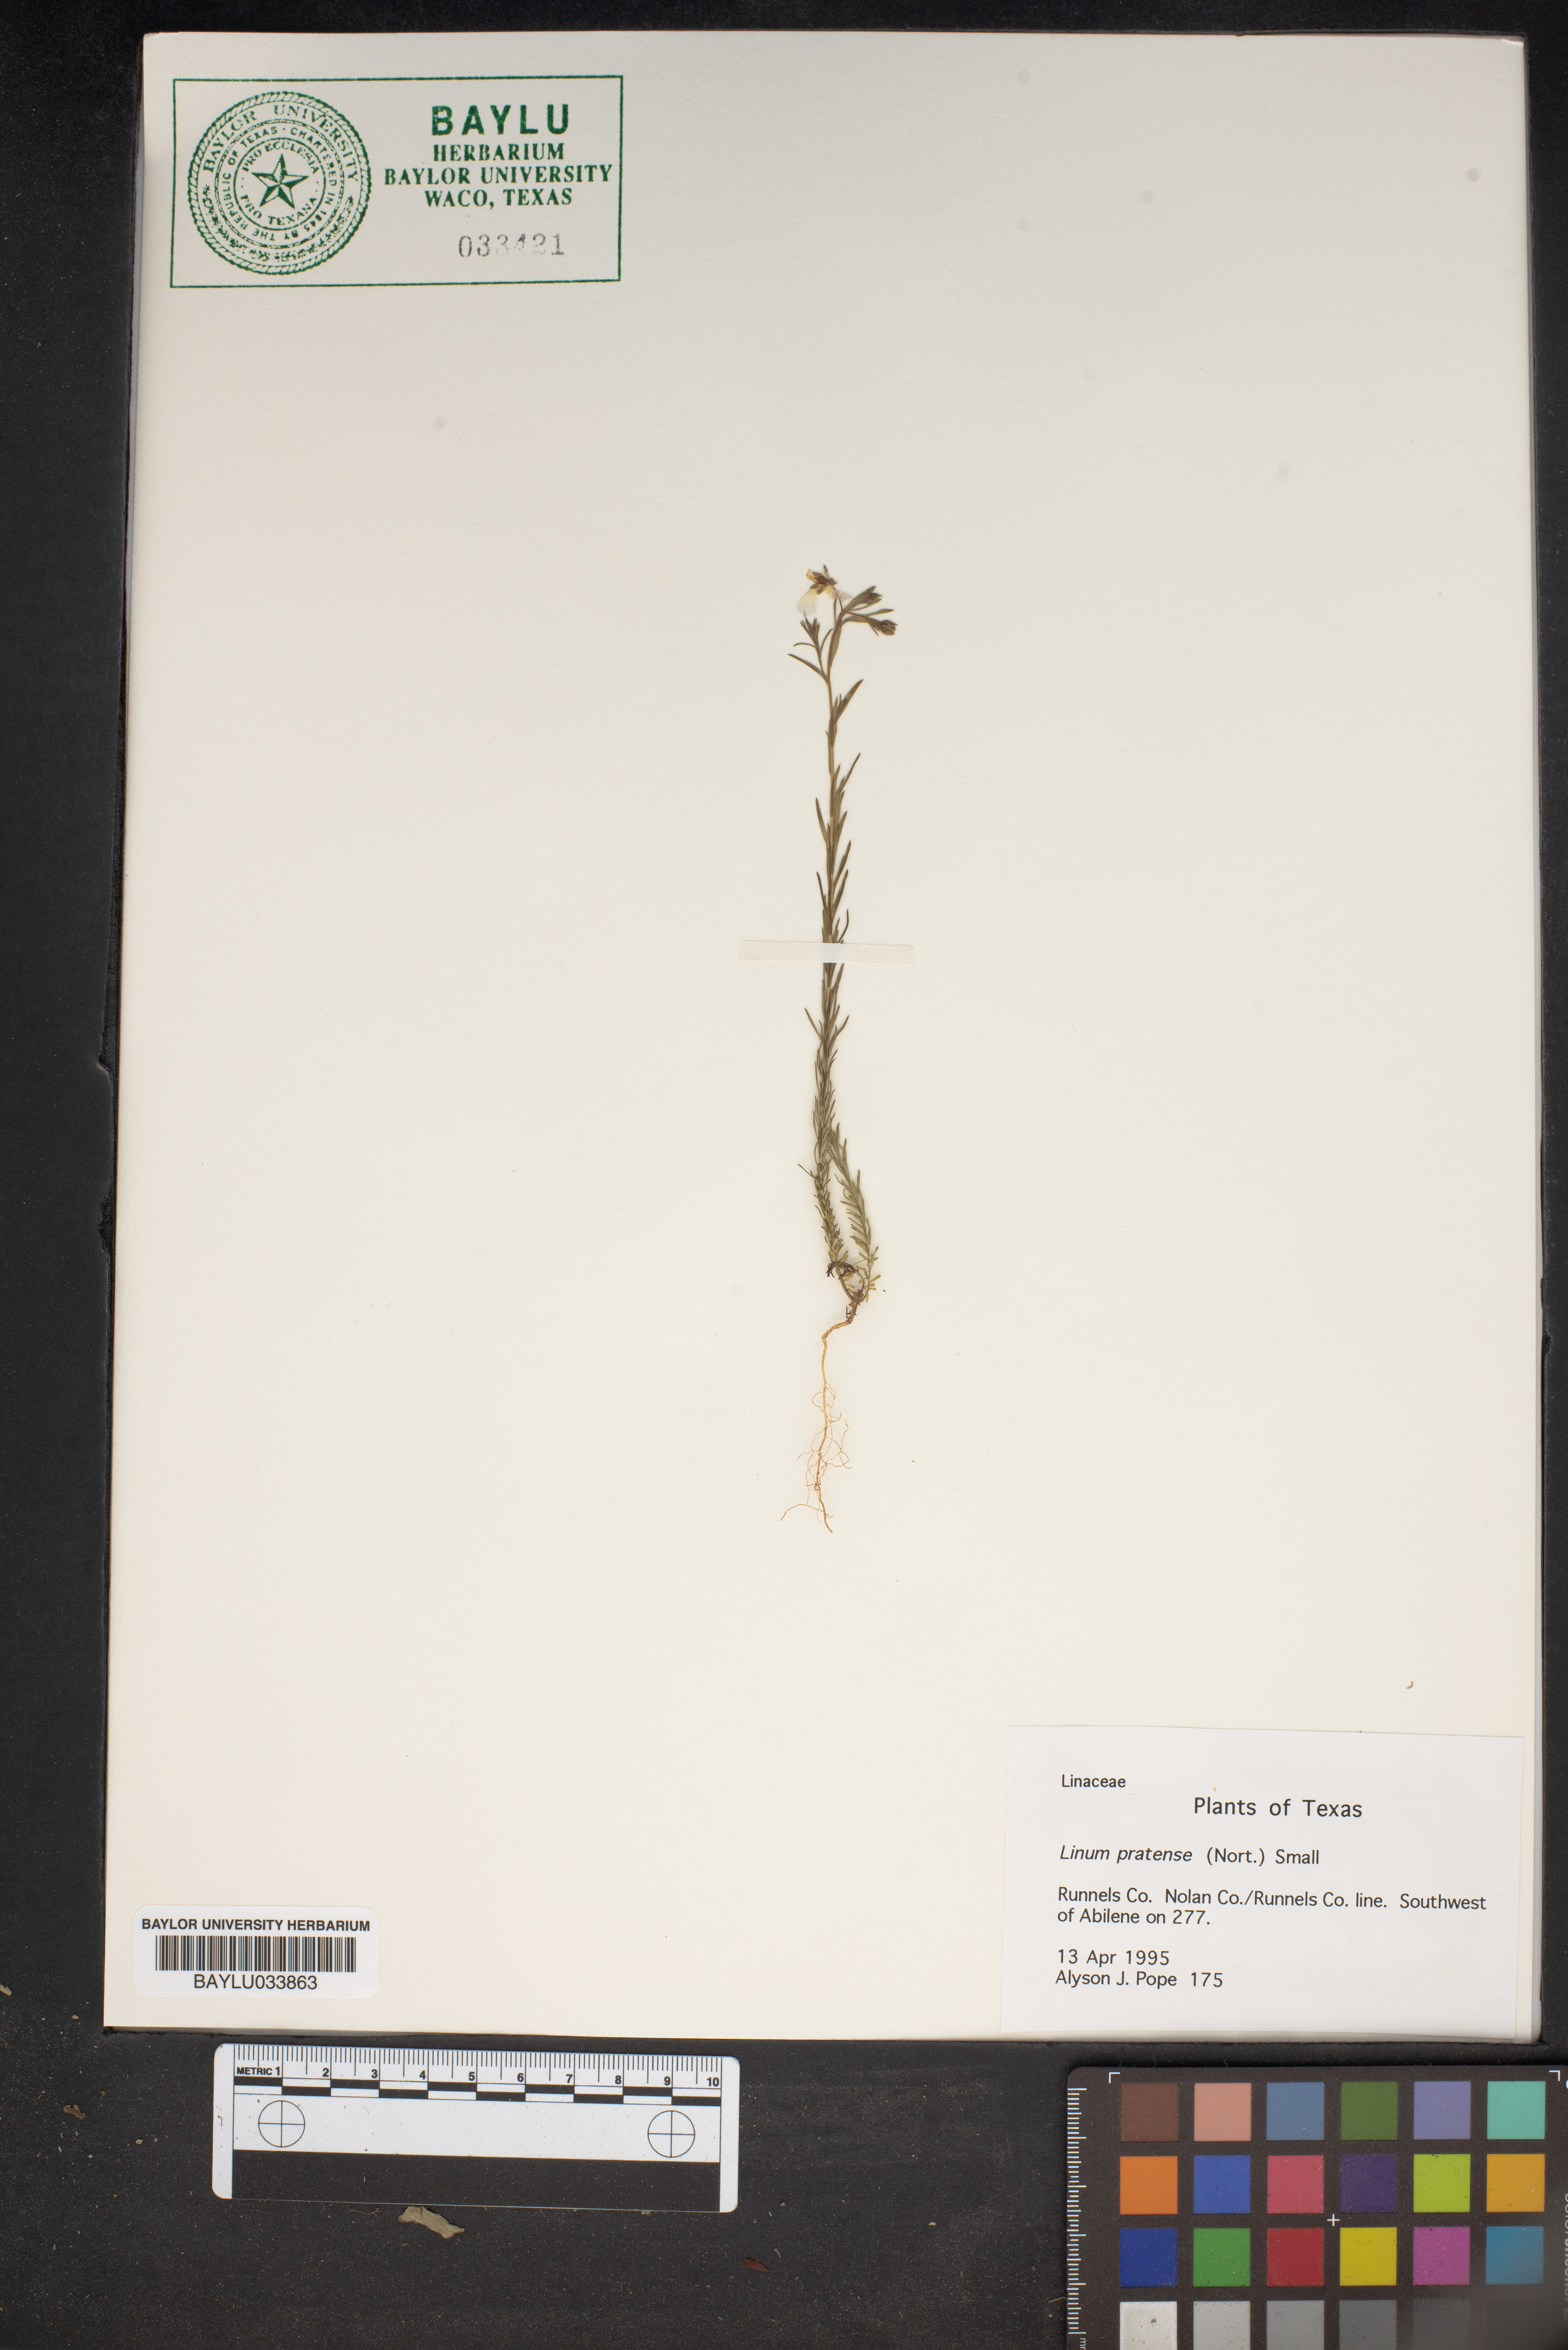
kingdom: Plantae
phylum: Tracheophyta
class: Magnoliopsida
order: Malpighiales
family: Linaceae
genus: Linum
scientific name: Linum pratense
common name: Norton's flax
